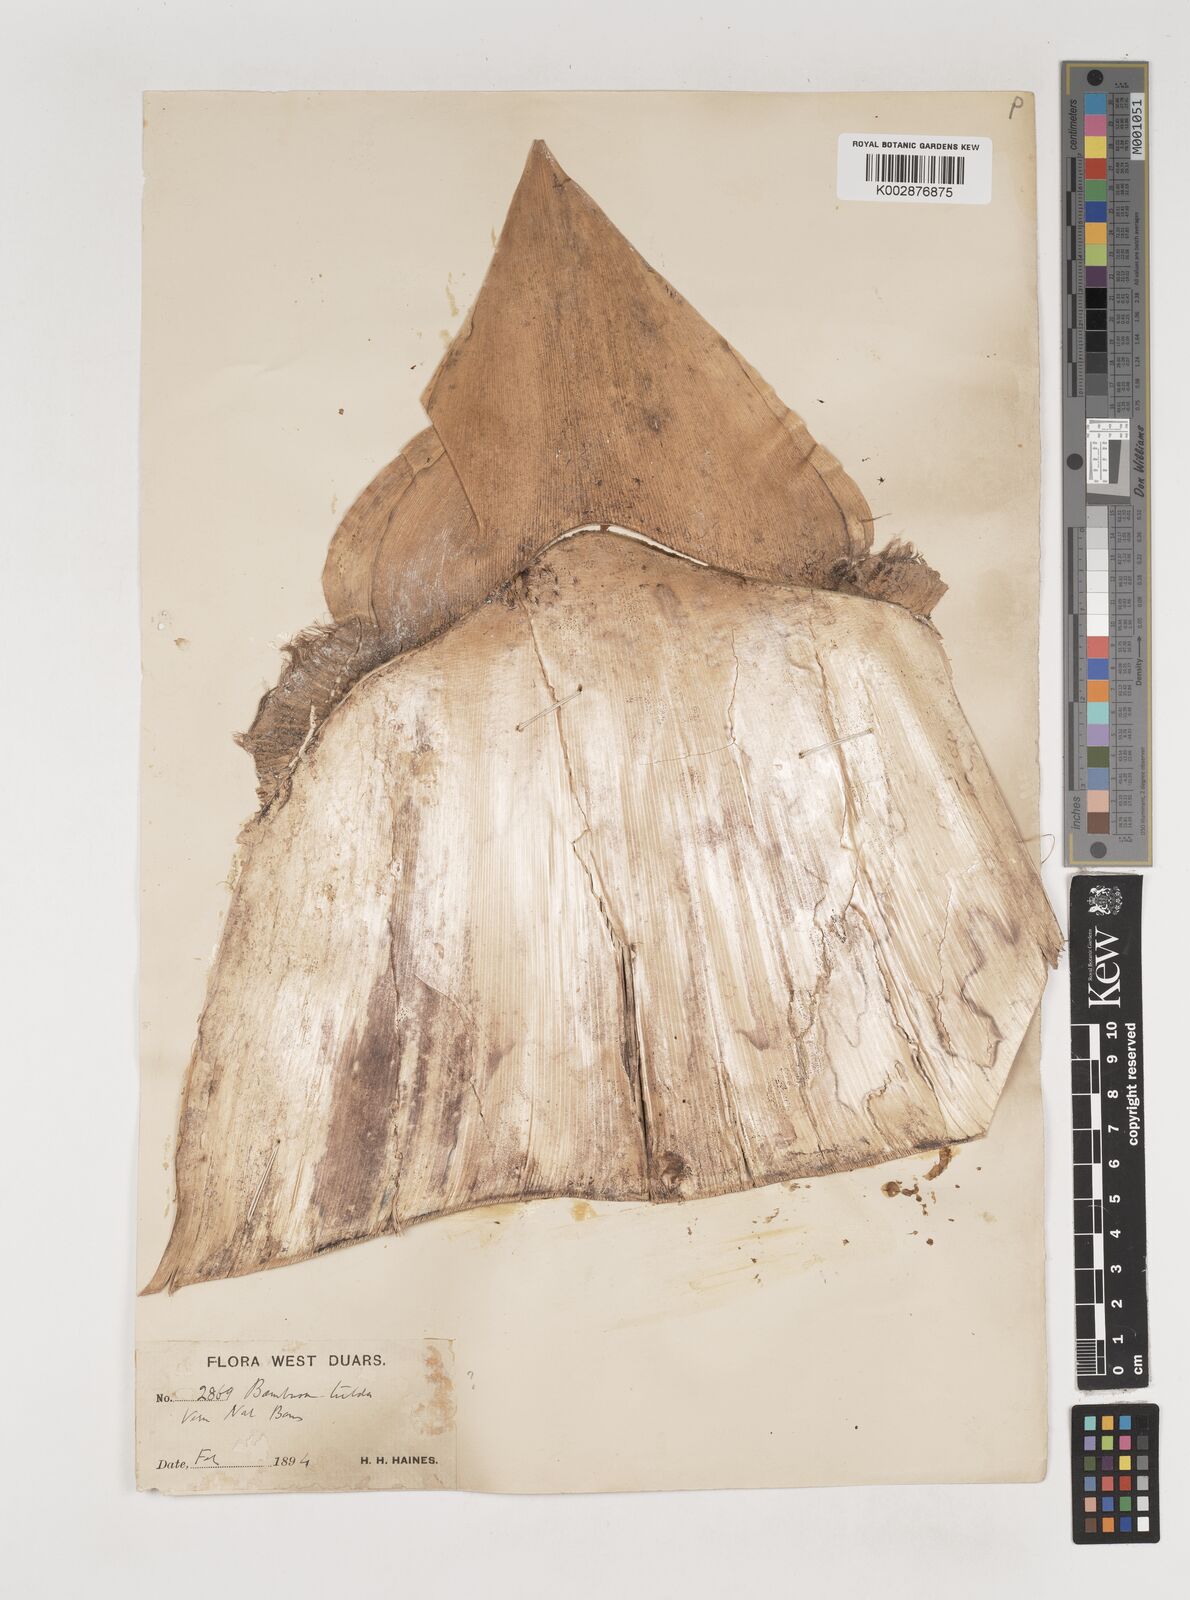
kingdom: Plantae
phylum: Tracheophyta
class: Liliopsida
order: Poales
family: Poaceae
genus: Bambusa
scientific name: Bambusa tuldoides
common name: Verdant bamboo
